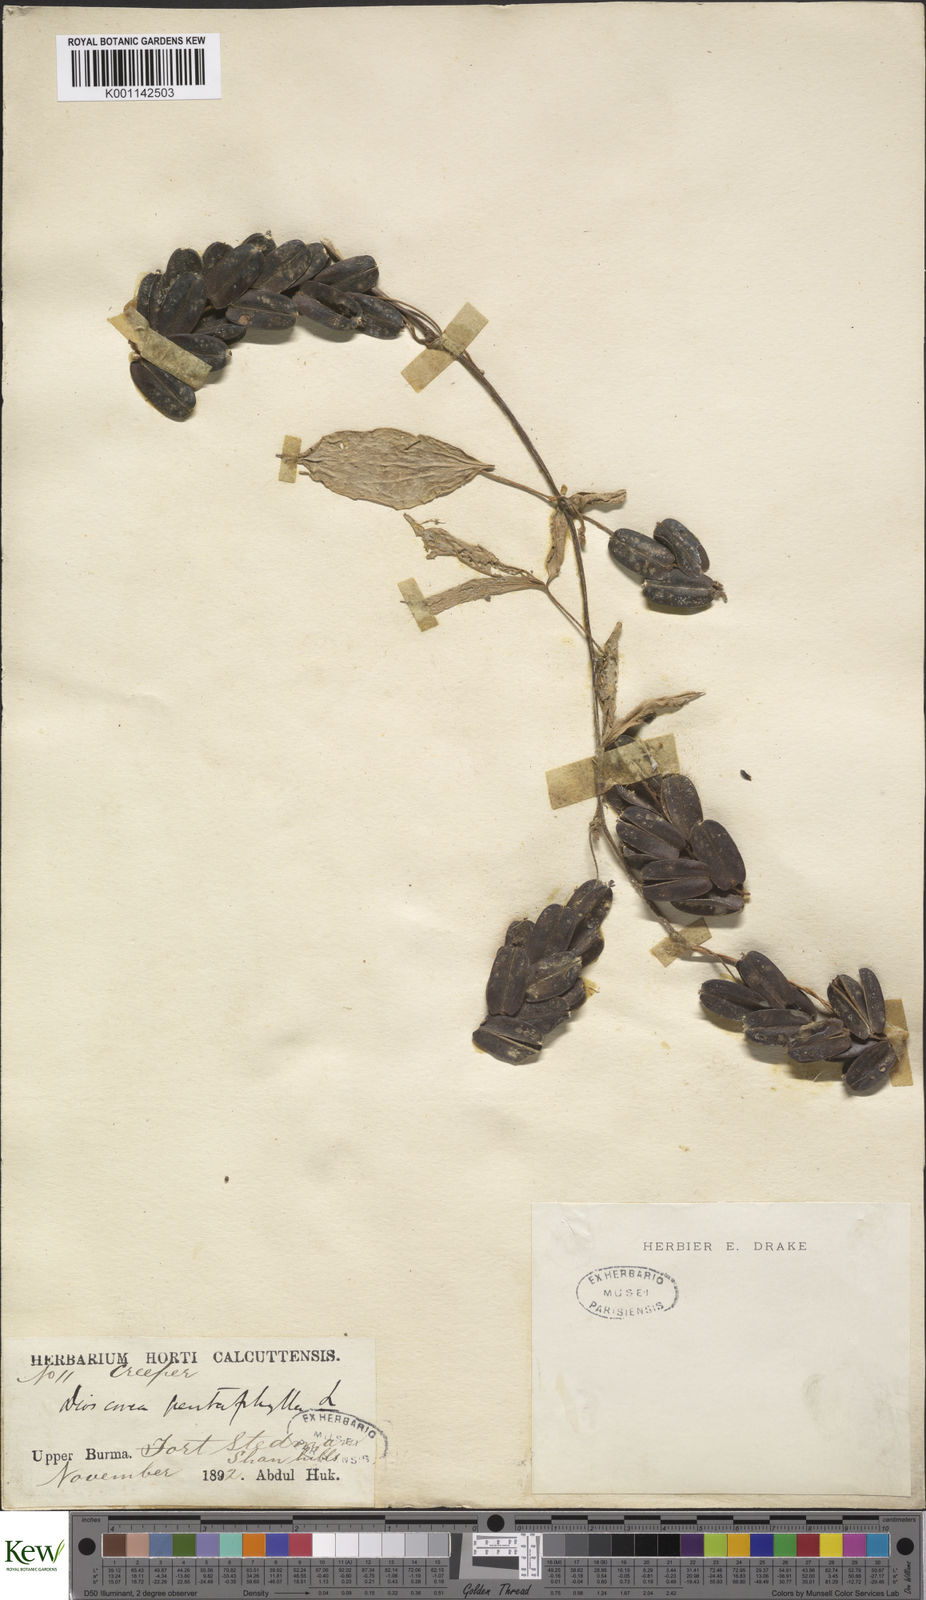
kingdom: Plantae
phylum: Tracheophyta
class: Liliopsida
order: Dioscoreales
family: Dioscoreaceae
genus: Dioscorea
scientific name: Dioscorea pentaphylla
